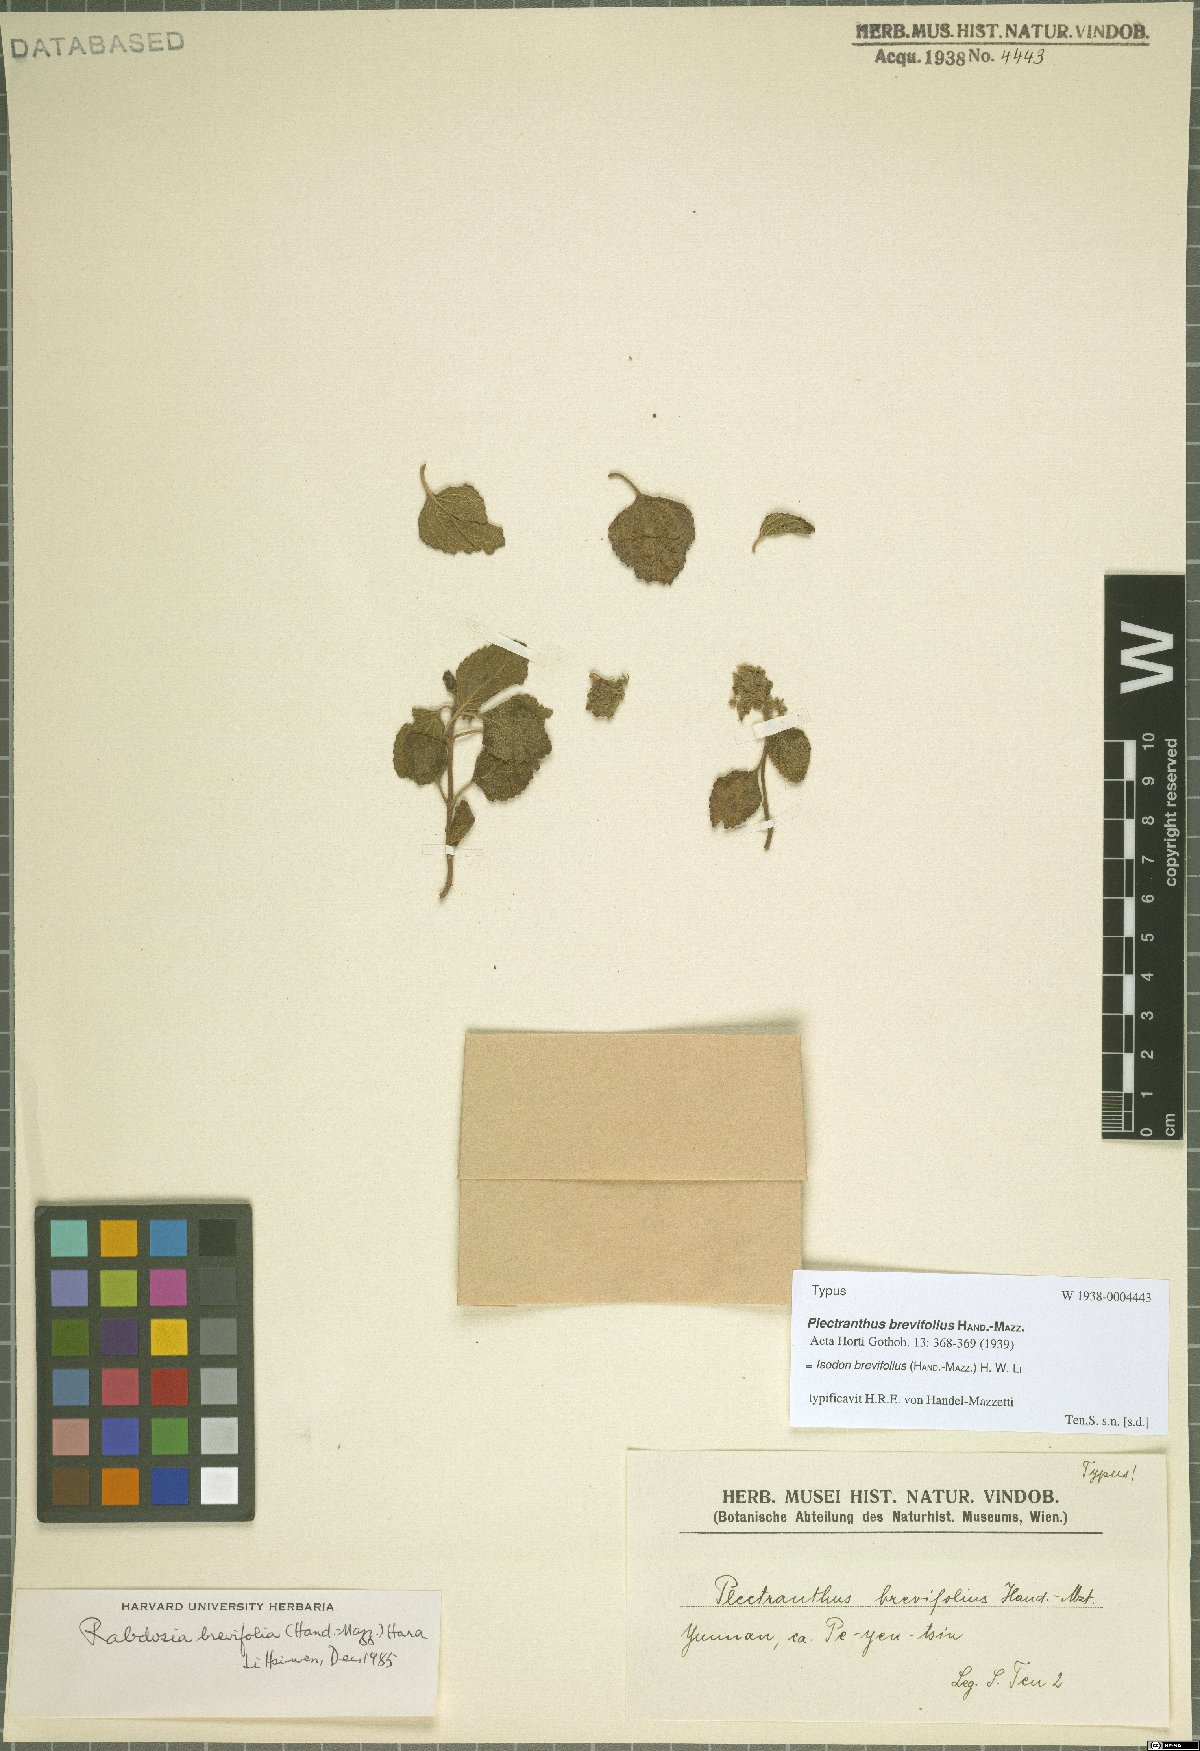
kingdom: Plantae
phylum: Tracheophyta
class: Magnoliopsida
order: Lamiales
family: Lamiaceae
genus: Isodon
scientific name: Isodon brevifolius
